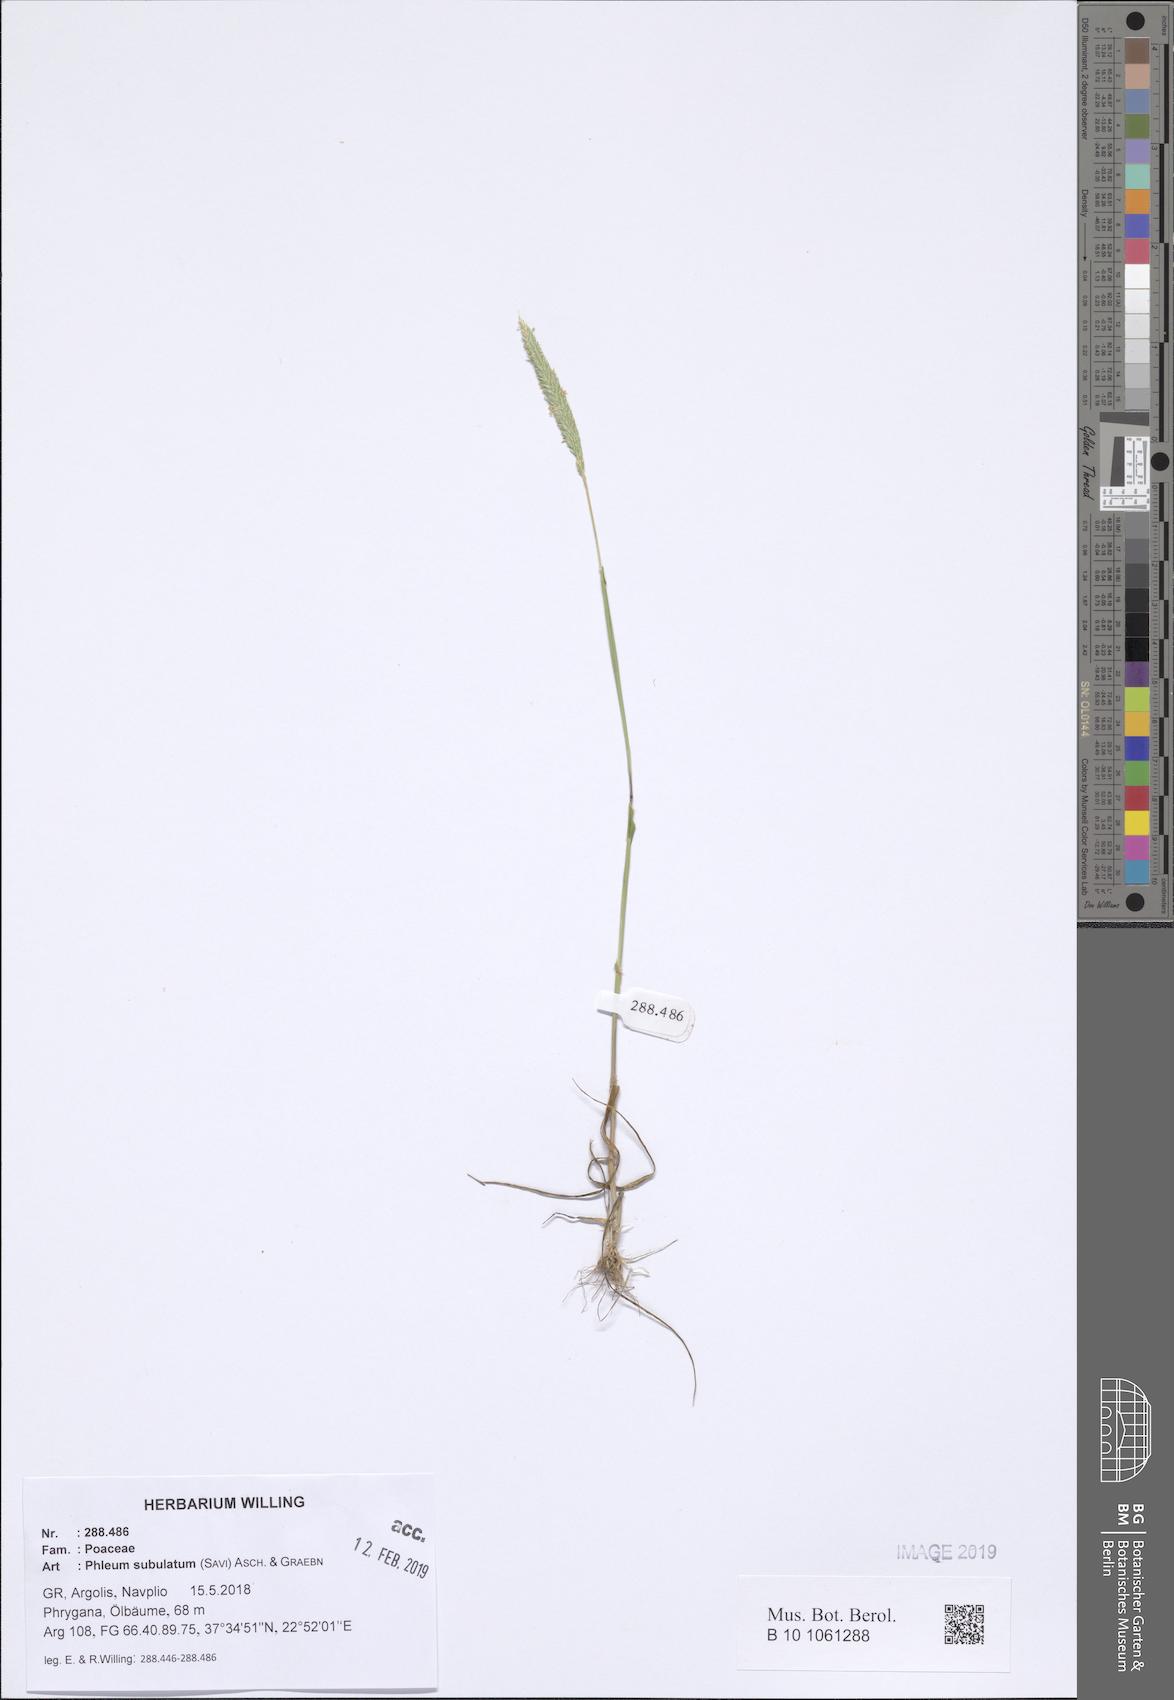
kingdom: Plantae
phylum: Tracheophyta
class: Liliopsida
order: Poales
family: Poaceae
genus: Phleum
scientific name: Phleum subulatum
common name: Italian timothy
